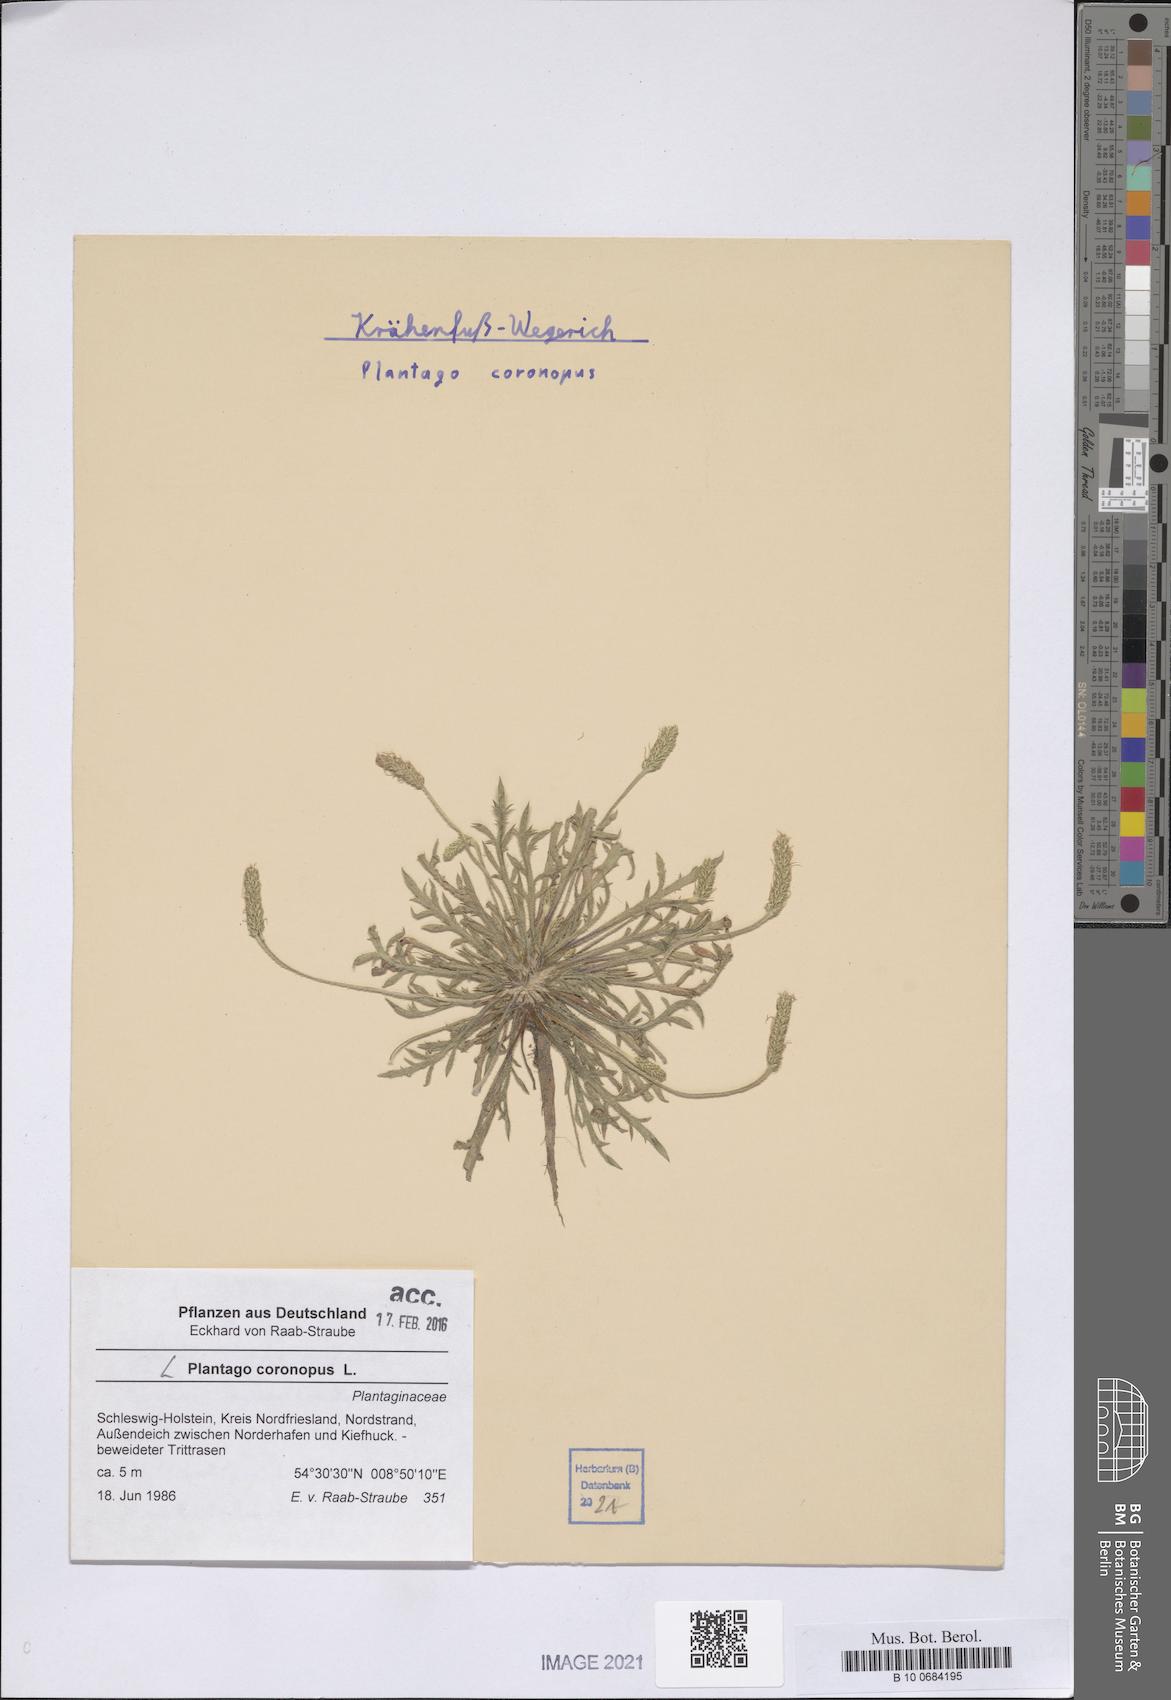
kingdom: Plantae
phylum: Tracheophyta
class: Magnoliopsida
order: Lamiales
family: Plantaginaceae
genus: Plantago
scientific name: Plantago coronopus
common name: Buck's-horn plantain
